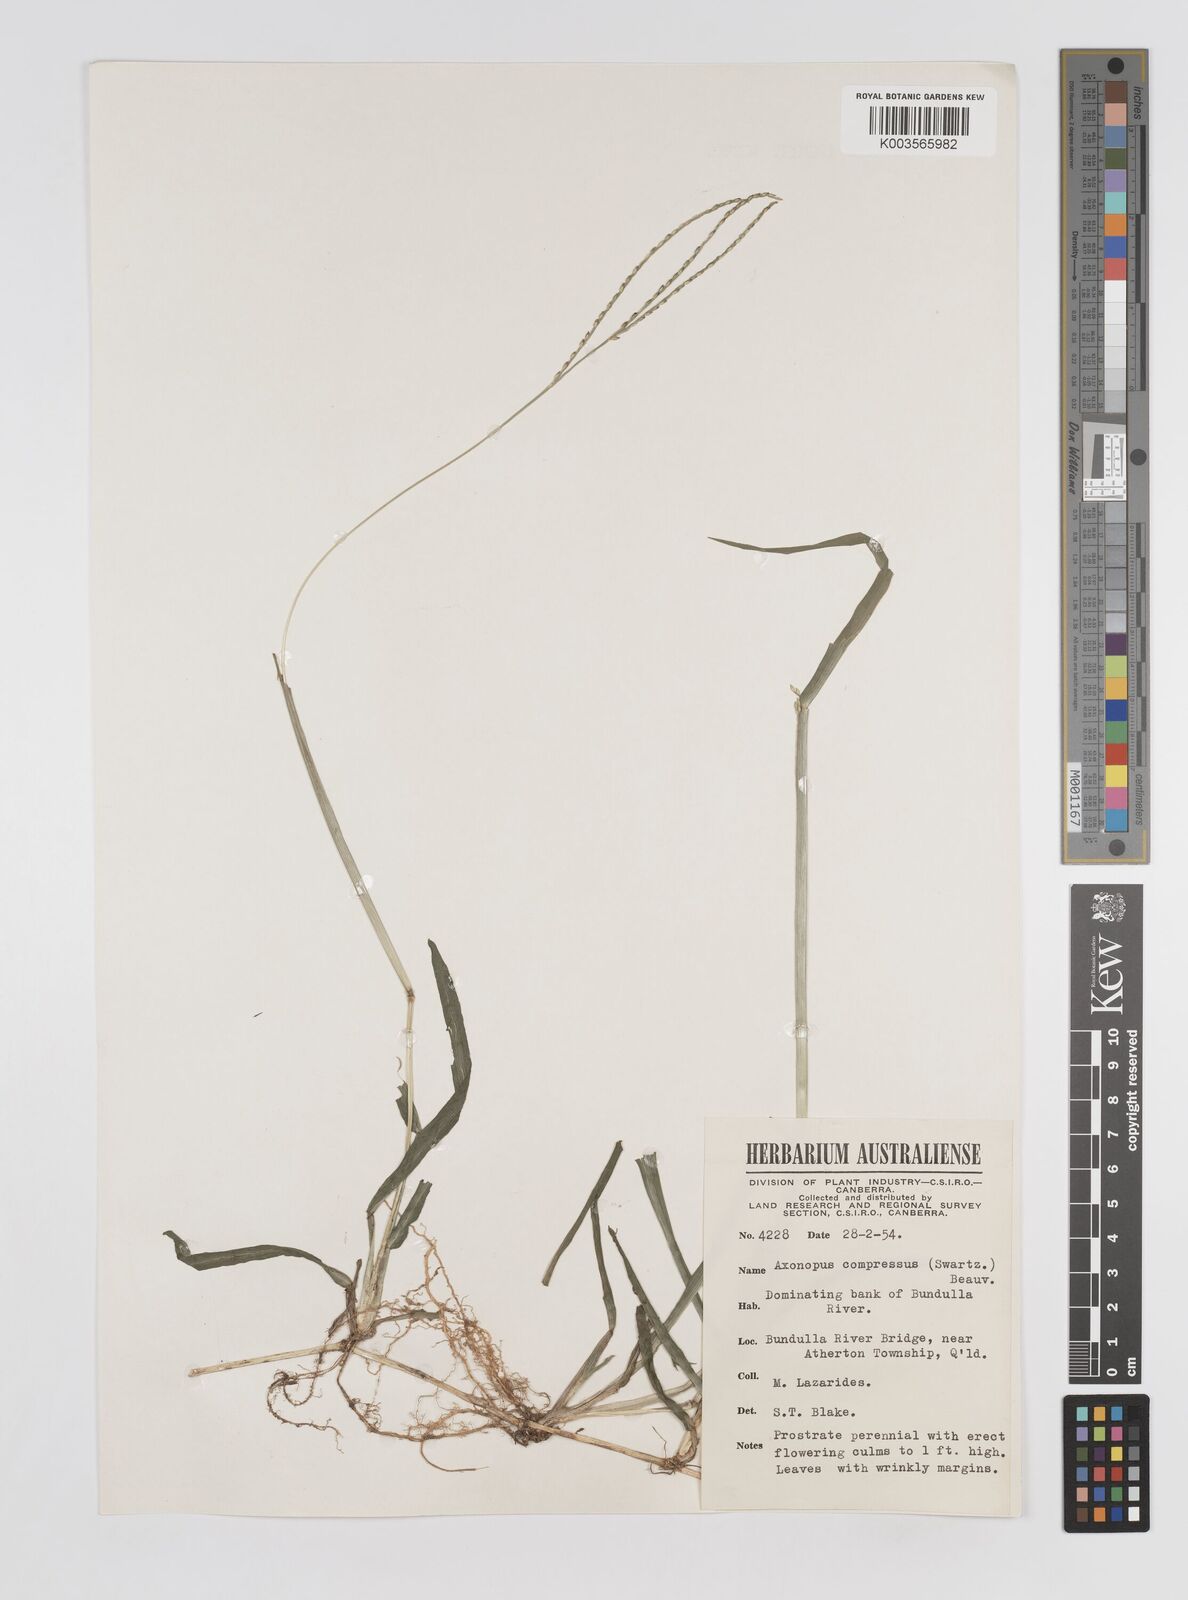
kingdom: Plantae
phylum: Tracheophyta
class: Liliopsida
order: Poales
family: Poaceae
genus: Axonopus
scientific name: Axonopus compressus
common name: American carpet grass
